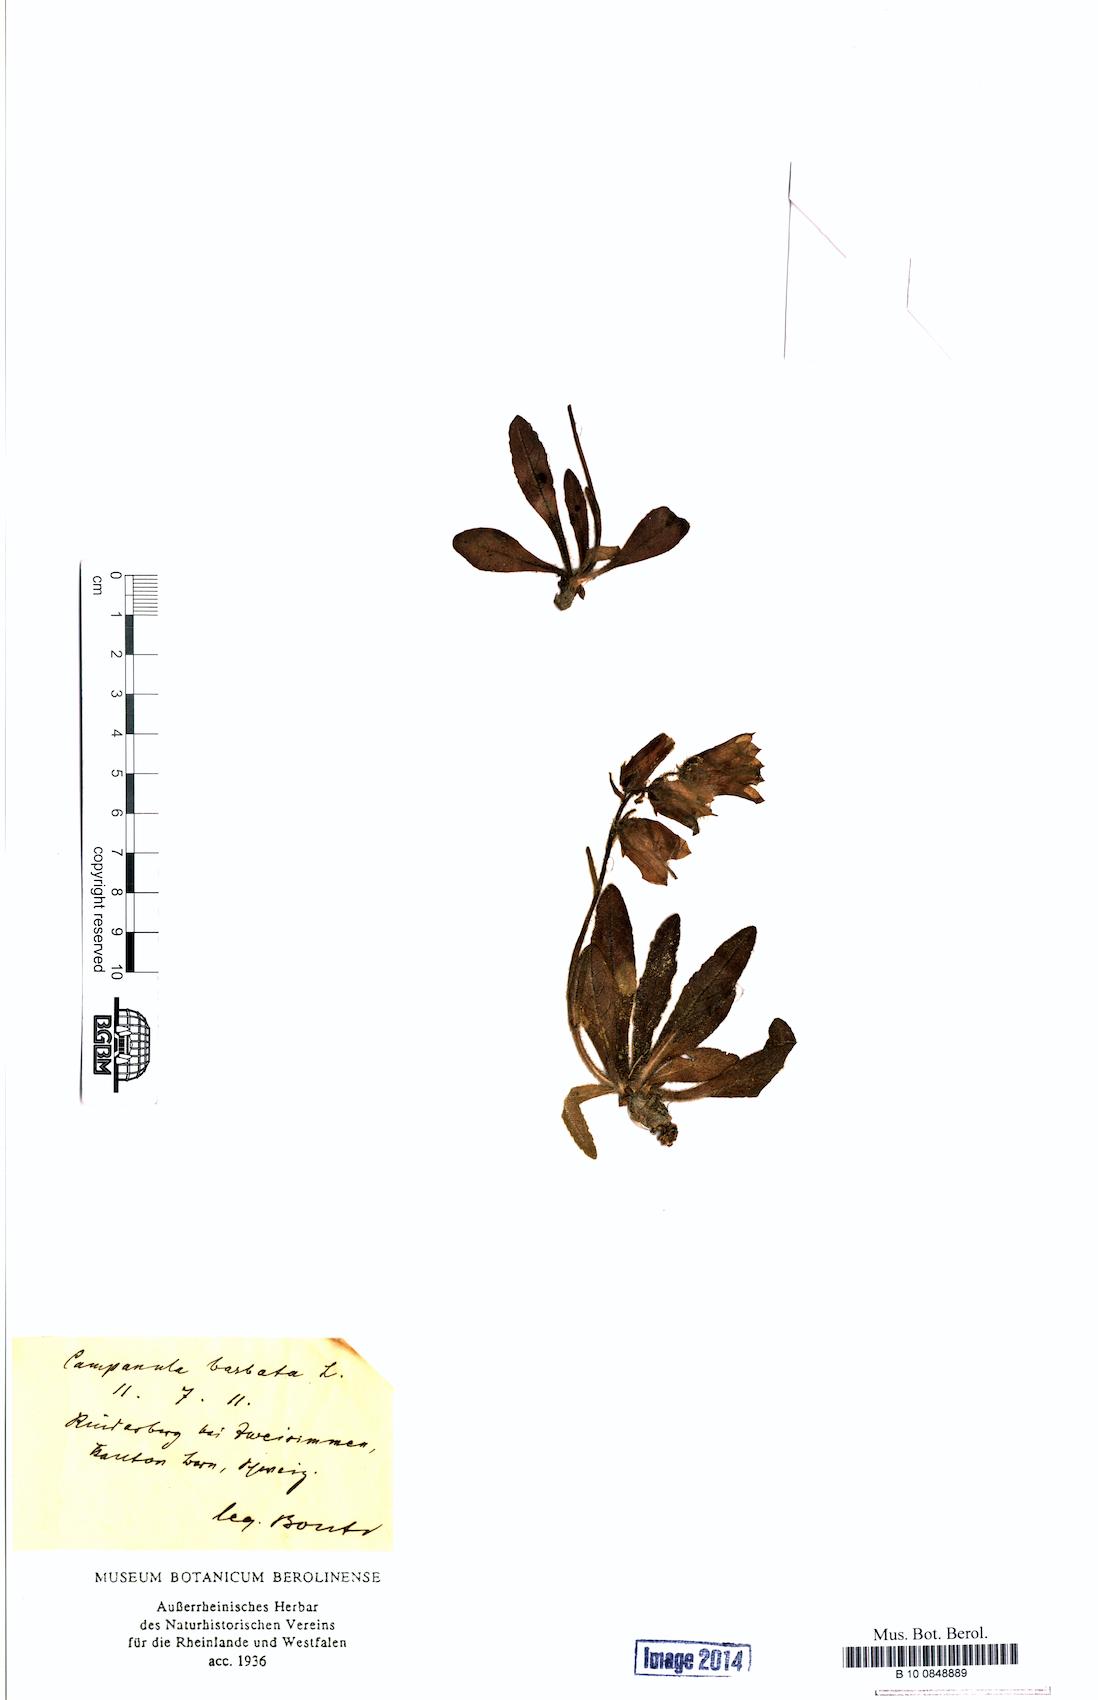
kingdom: Plantae
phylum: Tracheophyta
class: Magnoliopsida
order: Asterales
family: Campanulaceae
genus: Campanula
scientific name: Campanula barbata
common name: Bearded bellflower
